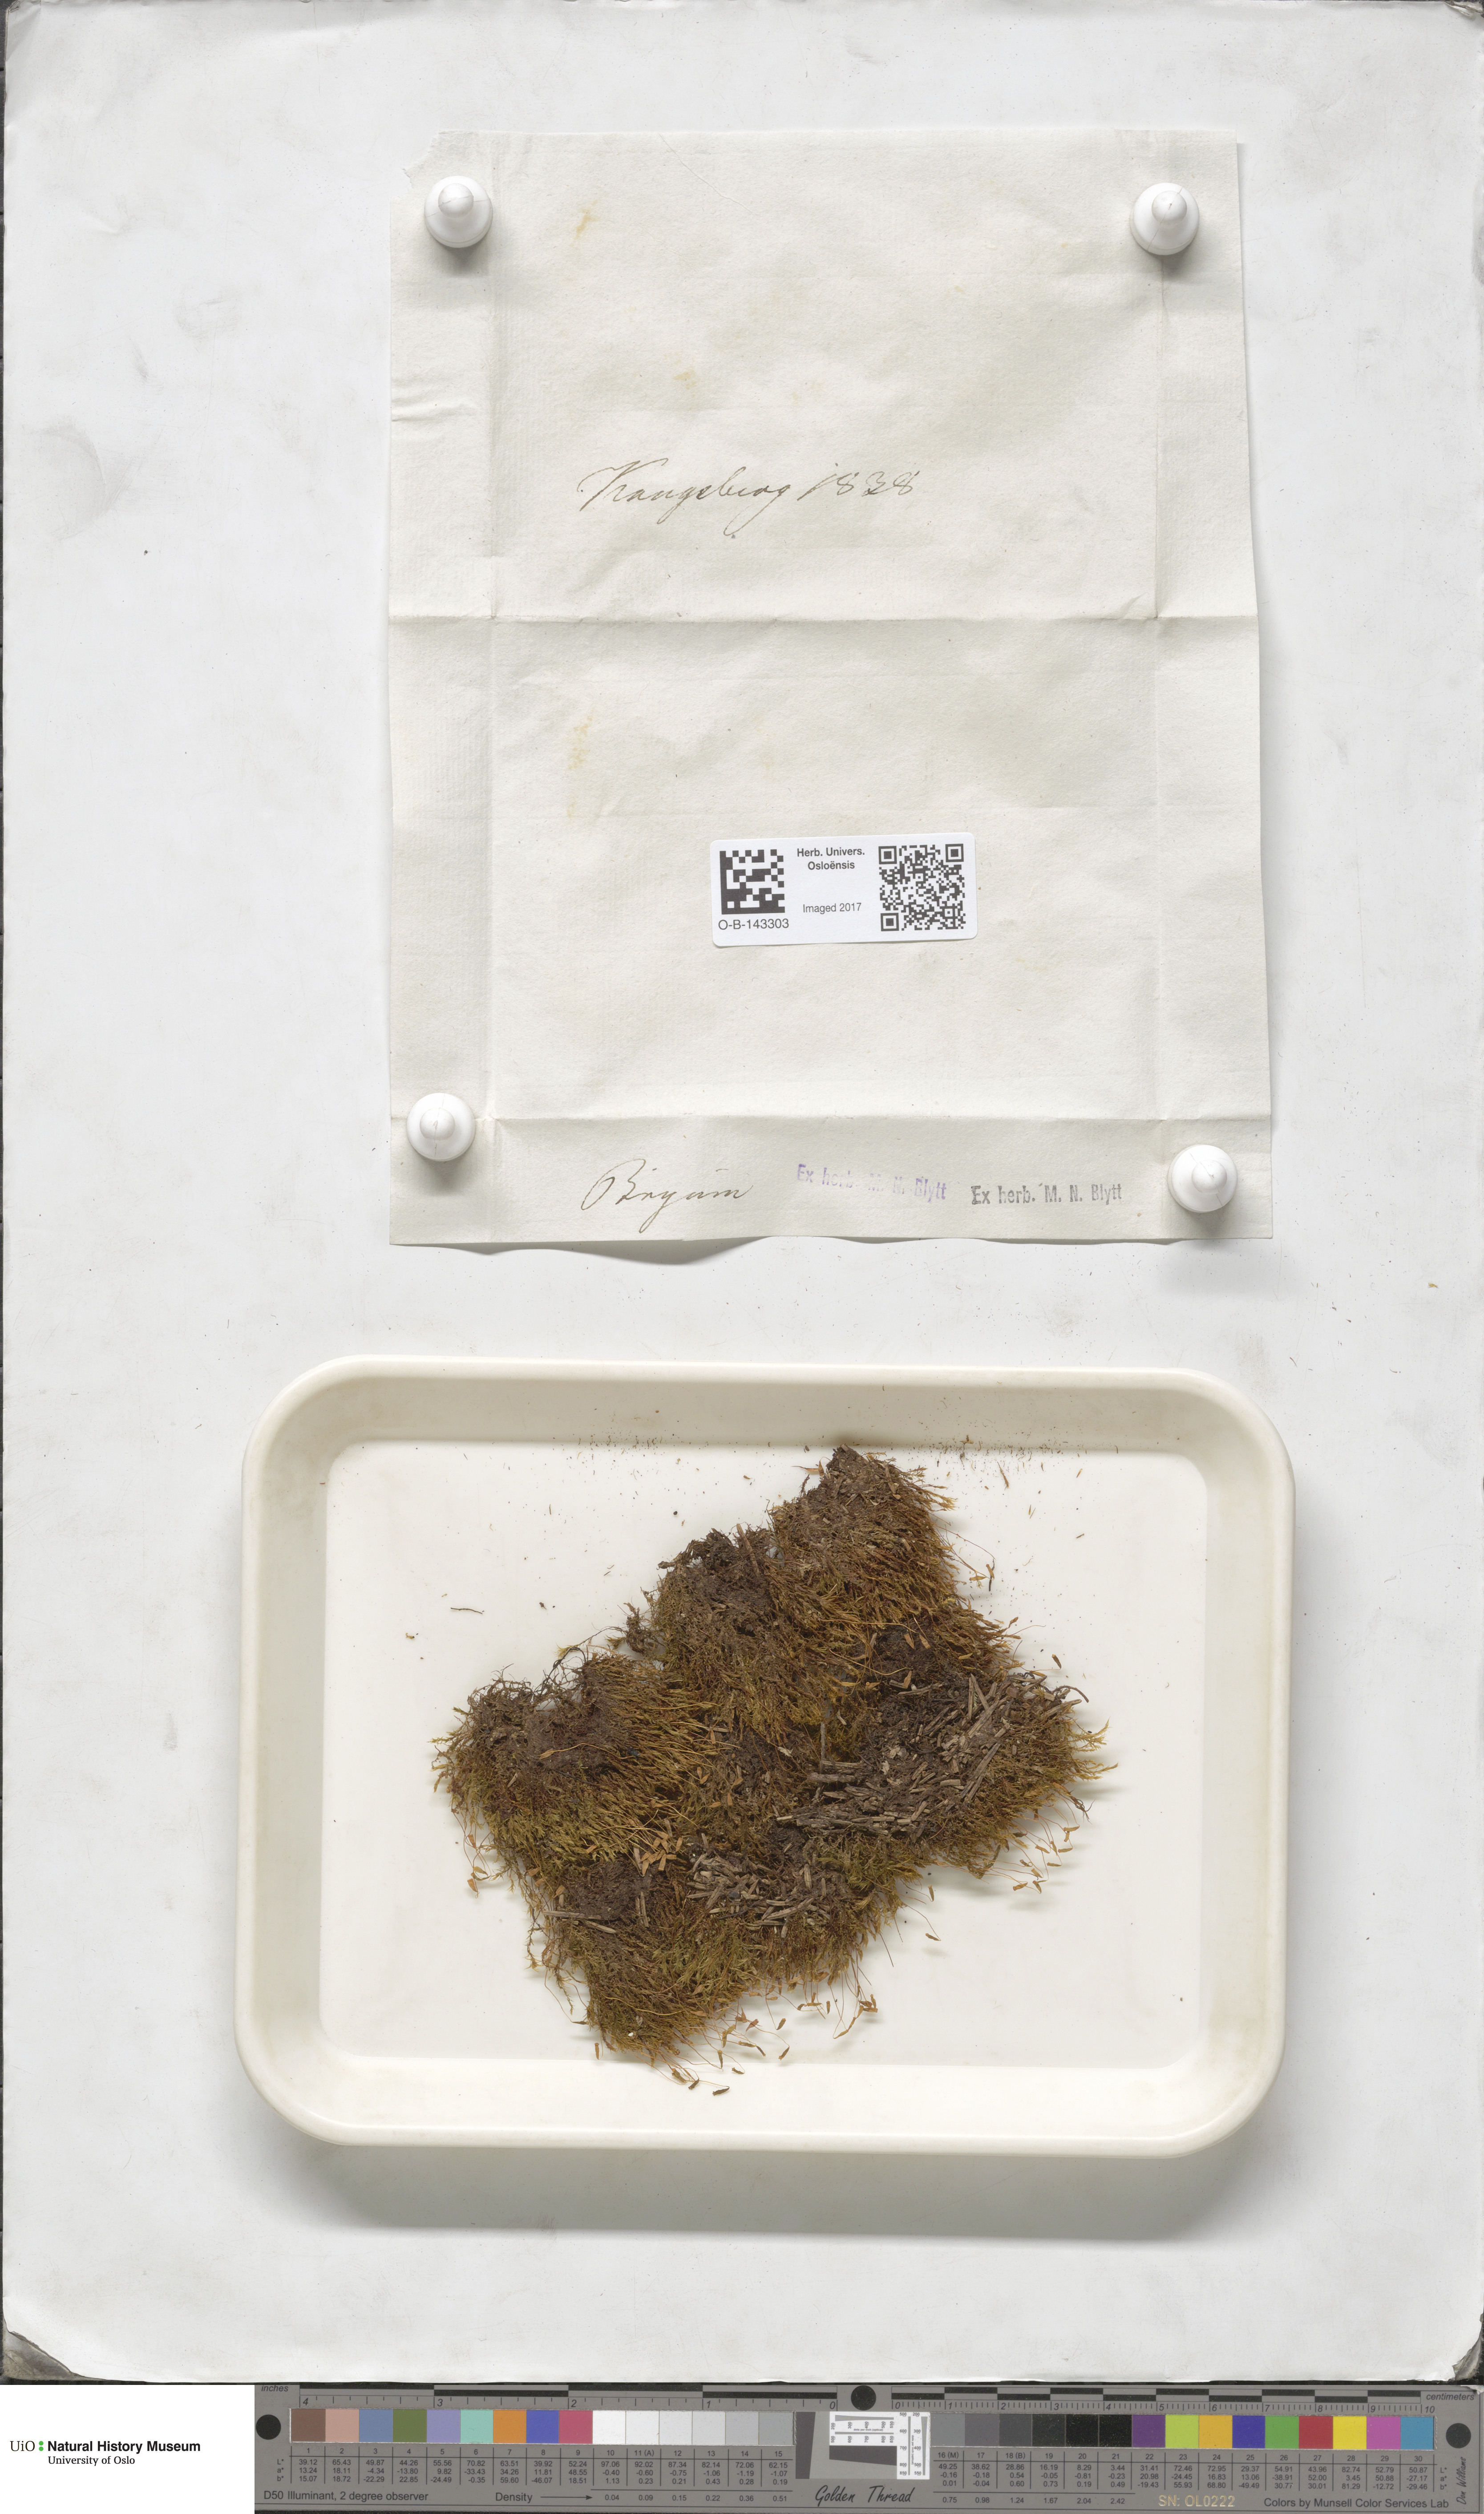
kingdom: Plantae
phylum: Bryophyta
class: Bryopsida
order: Bryales
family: Bryaceae
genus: Bryum
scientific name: Bryum
